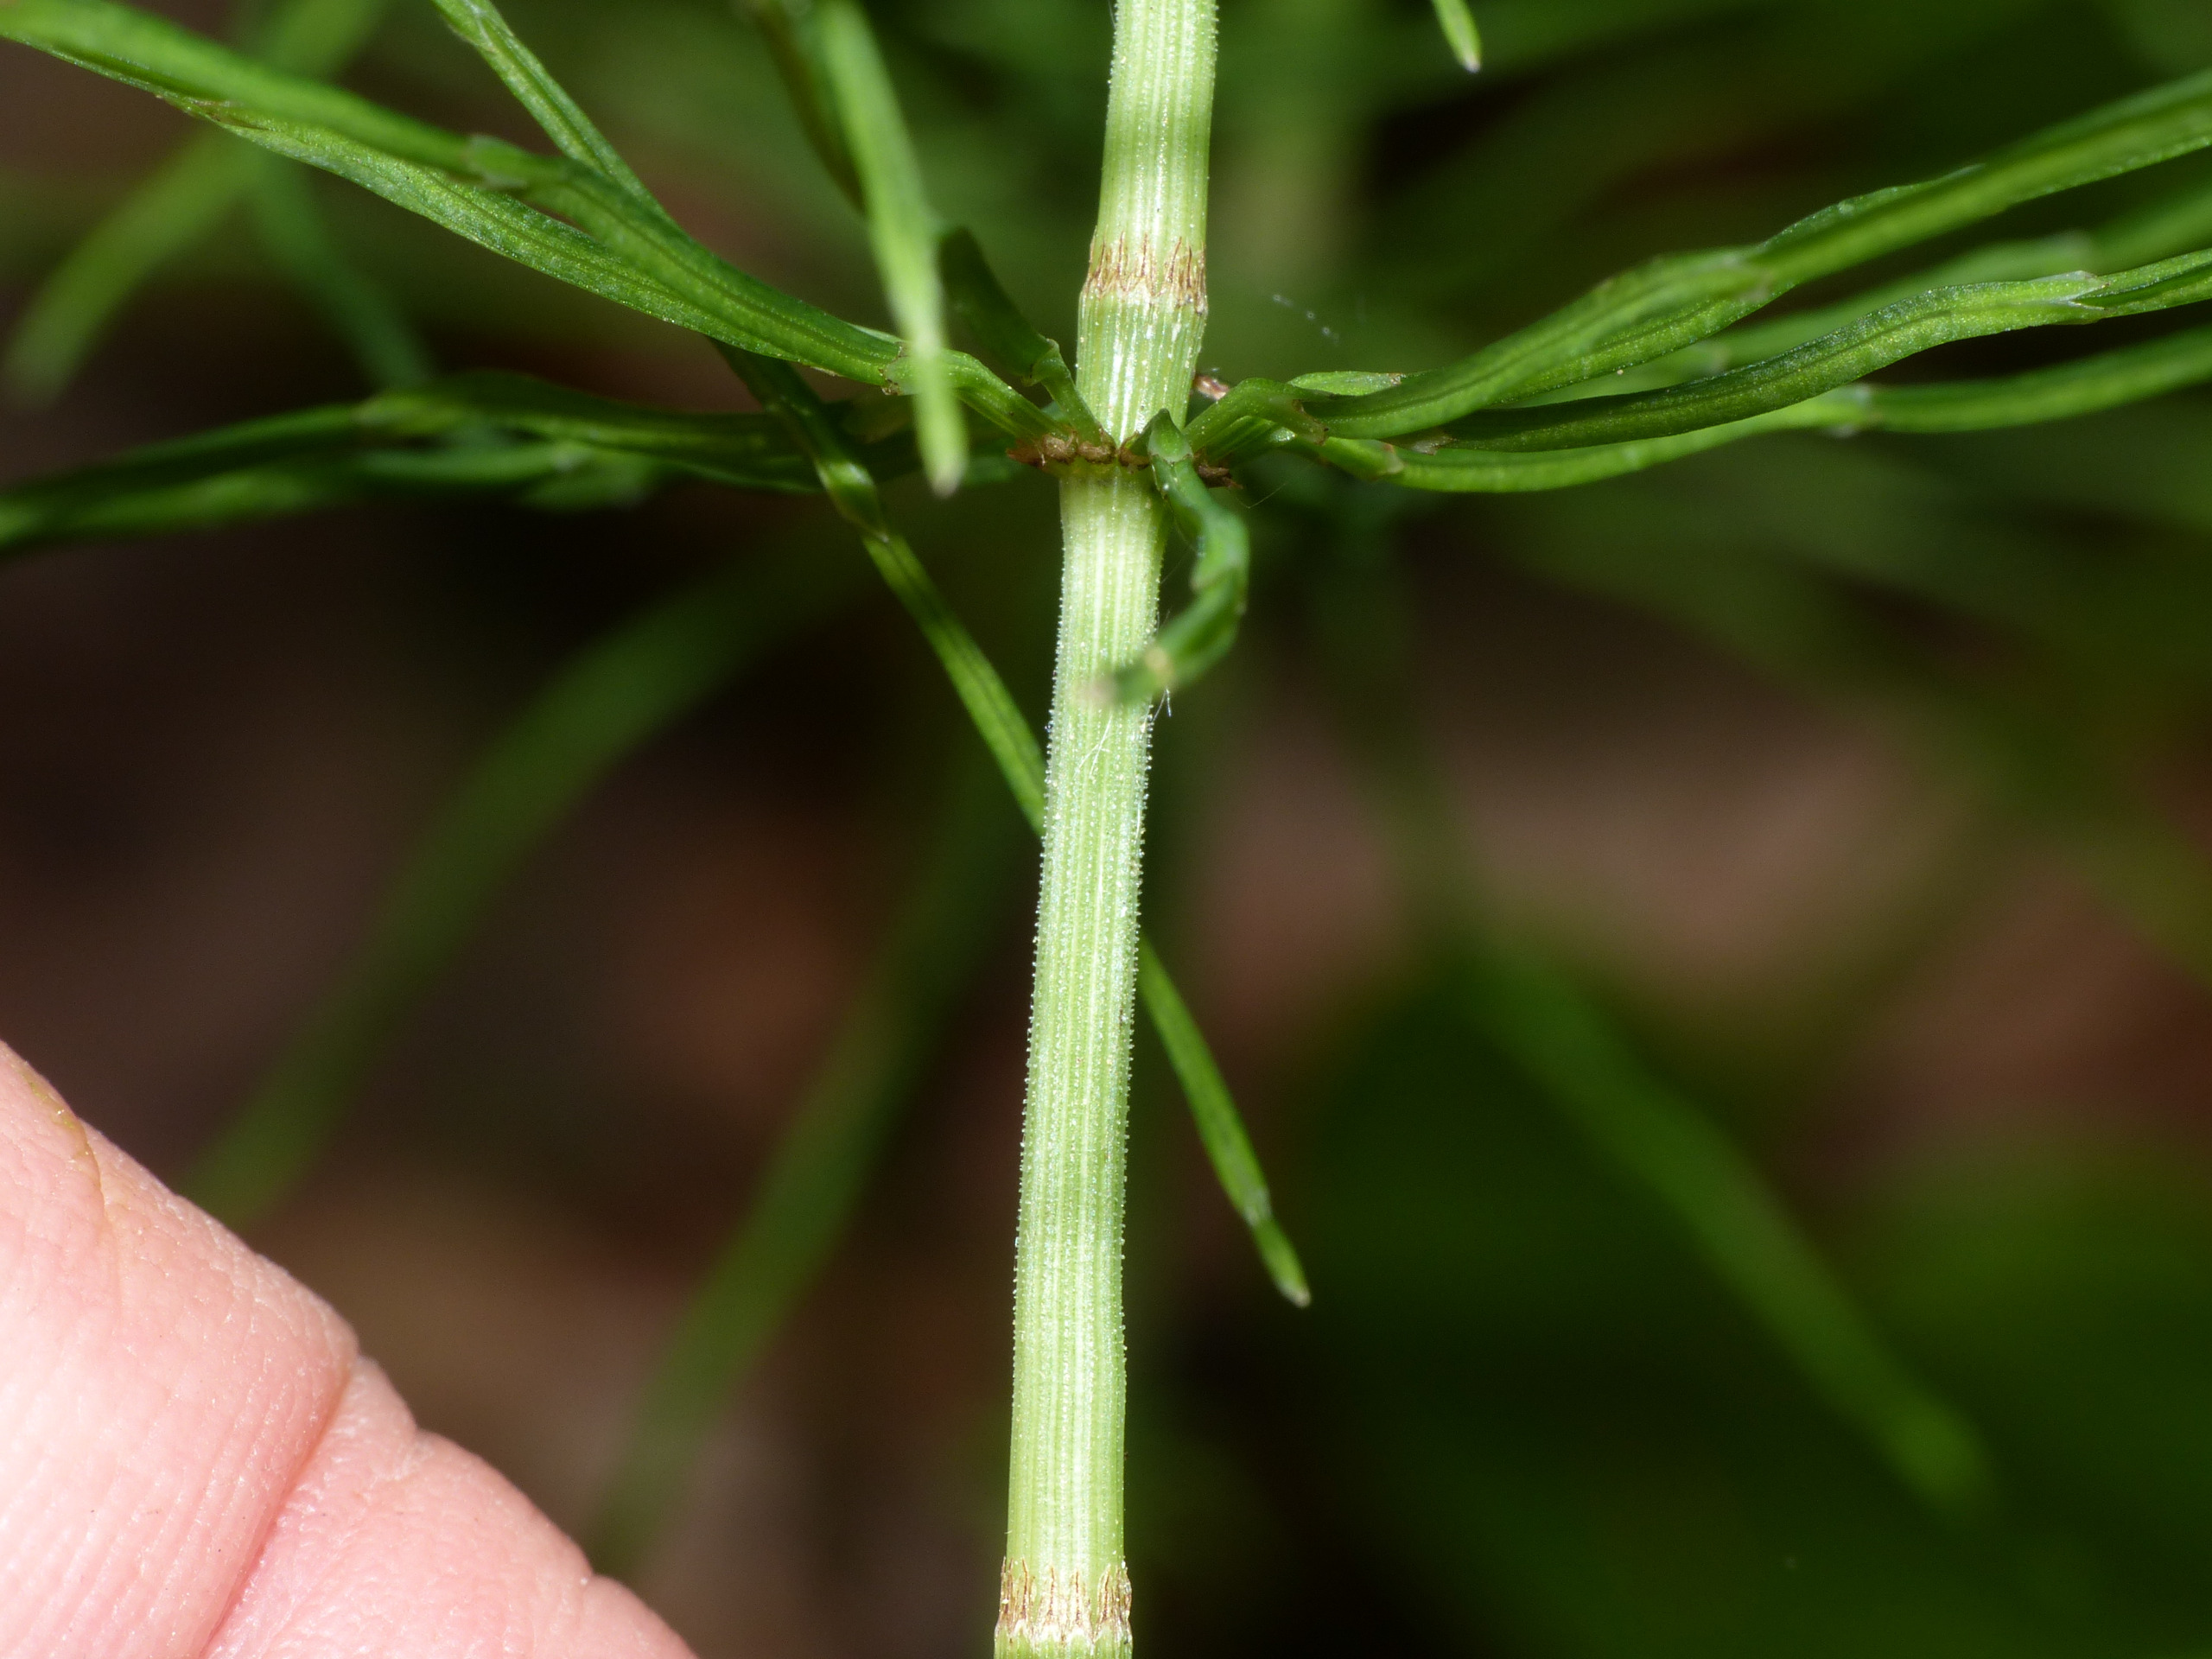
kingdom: Plantae
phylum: Tracheophyta
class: Polypodiopsida
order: Equisetales
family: Equisetaceae
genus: Equisetum
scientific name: Equisetum pratense
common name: Lund-padderok
